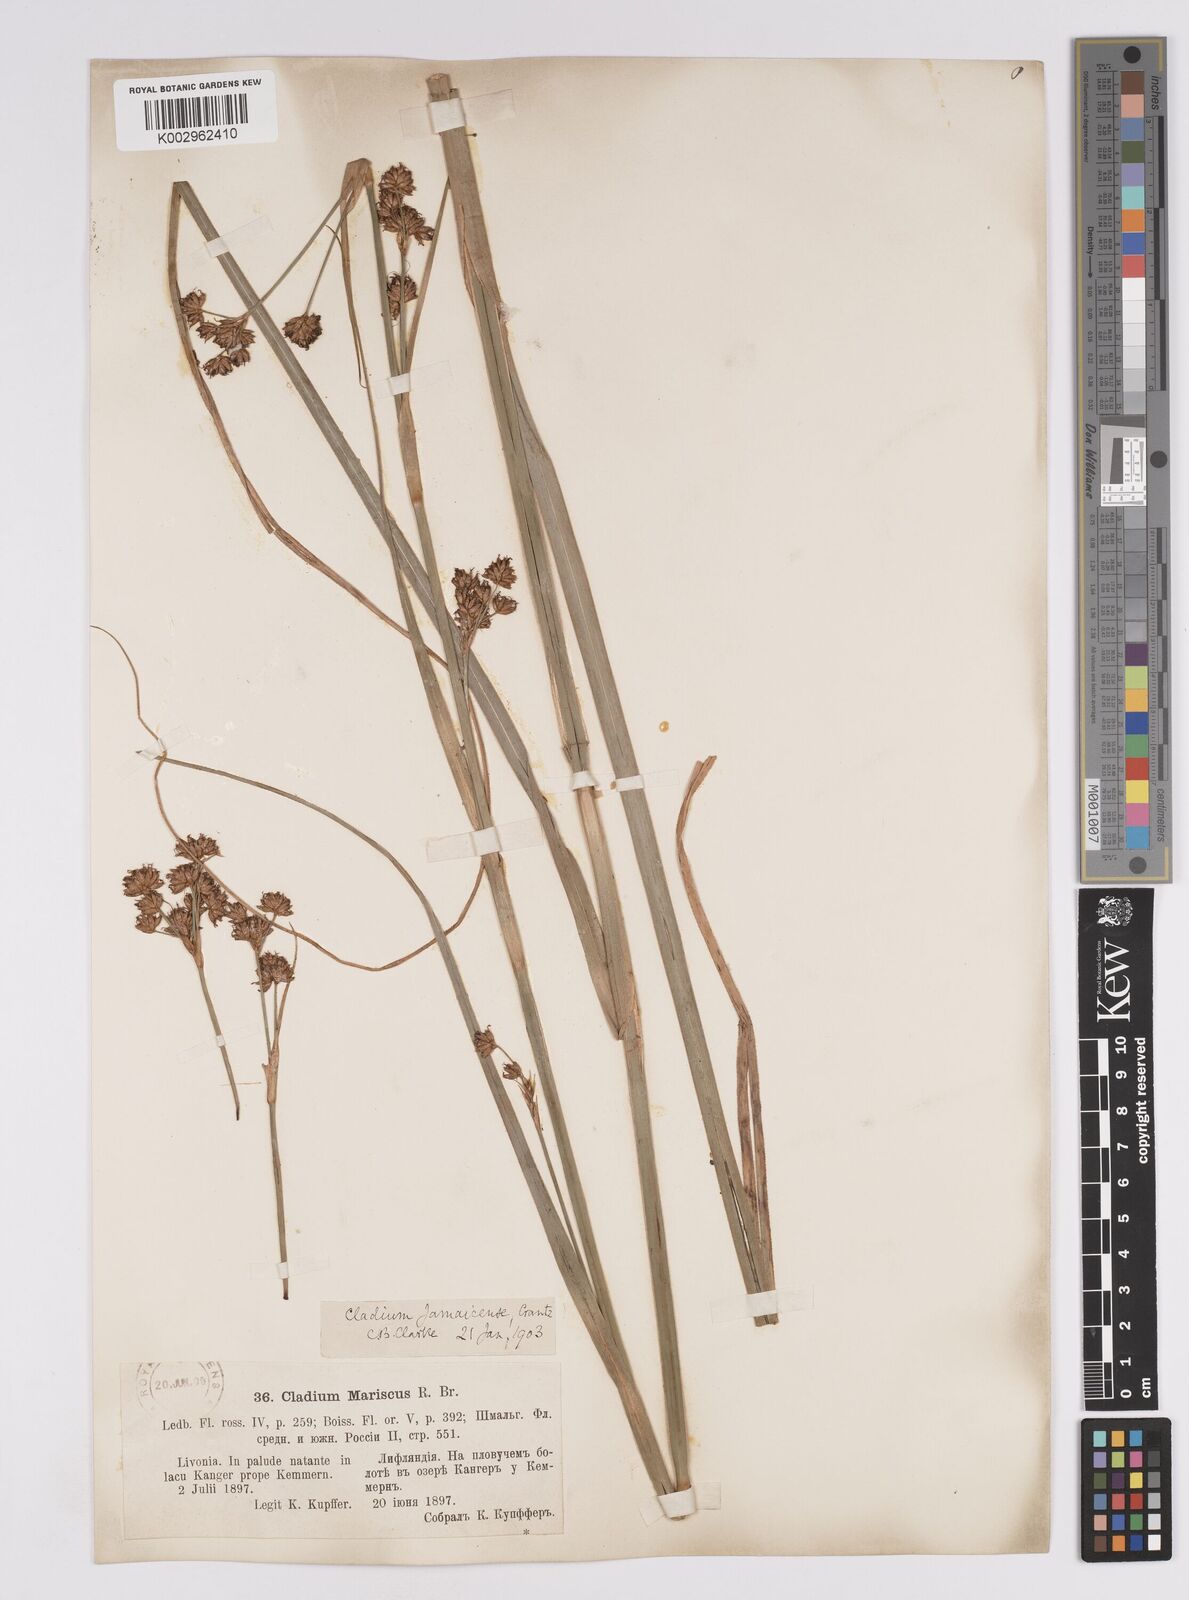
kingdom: Plantae
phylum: Tracheophyta
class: Liliopsida
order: Poales
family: Cyperaceae
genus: Cladium
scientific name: Cladium mariscus
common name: Great fen-sedge
